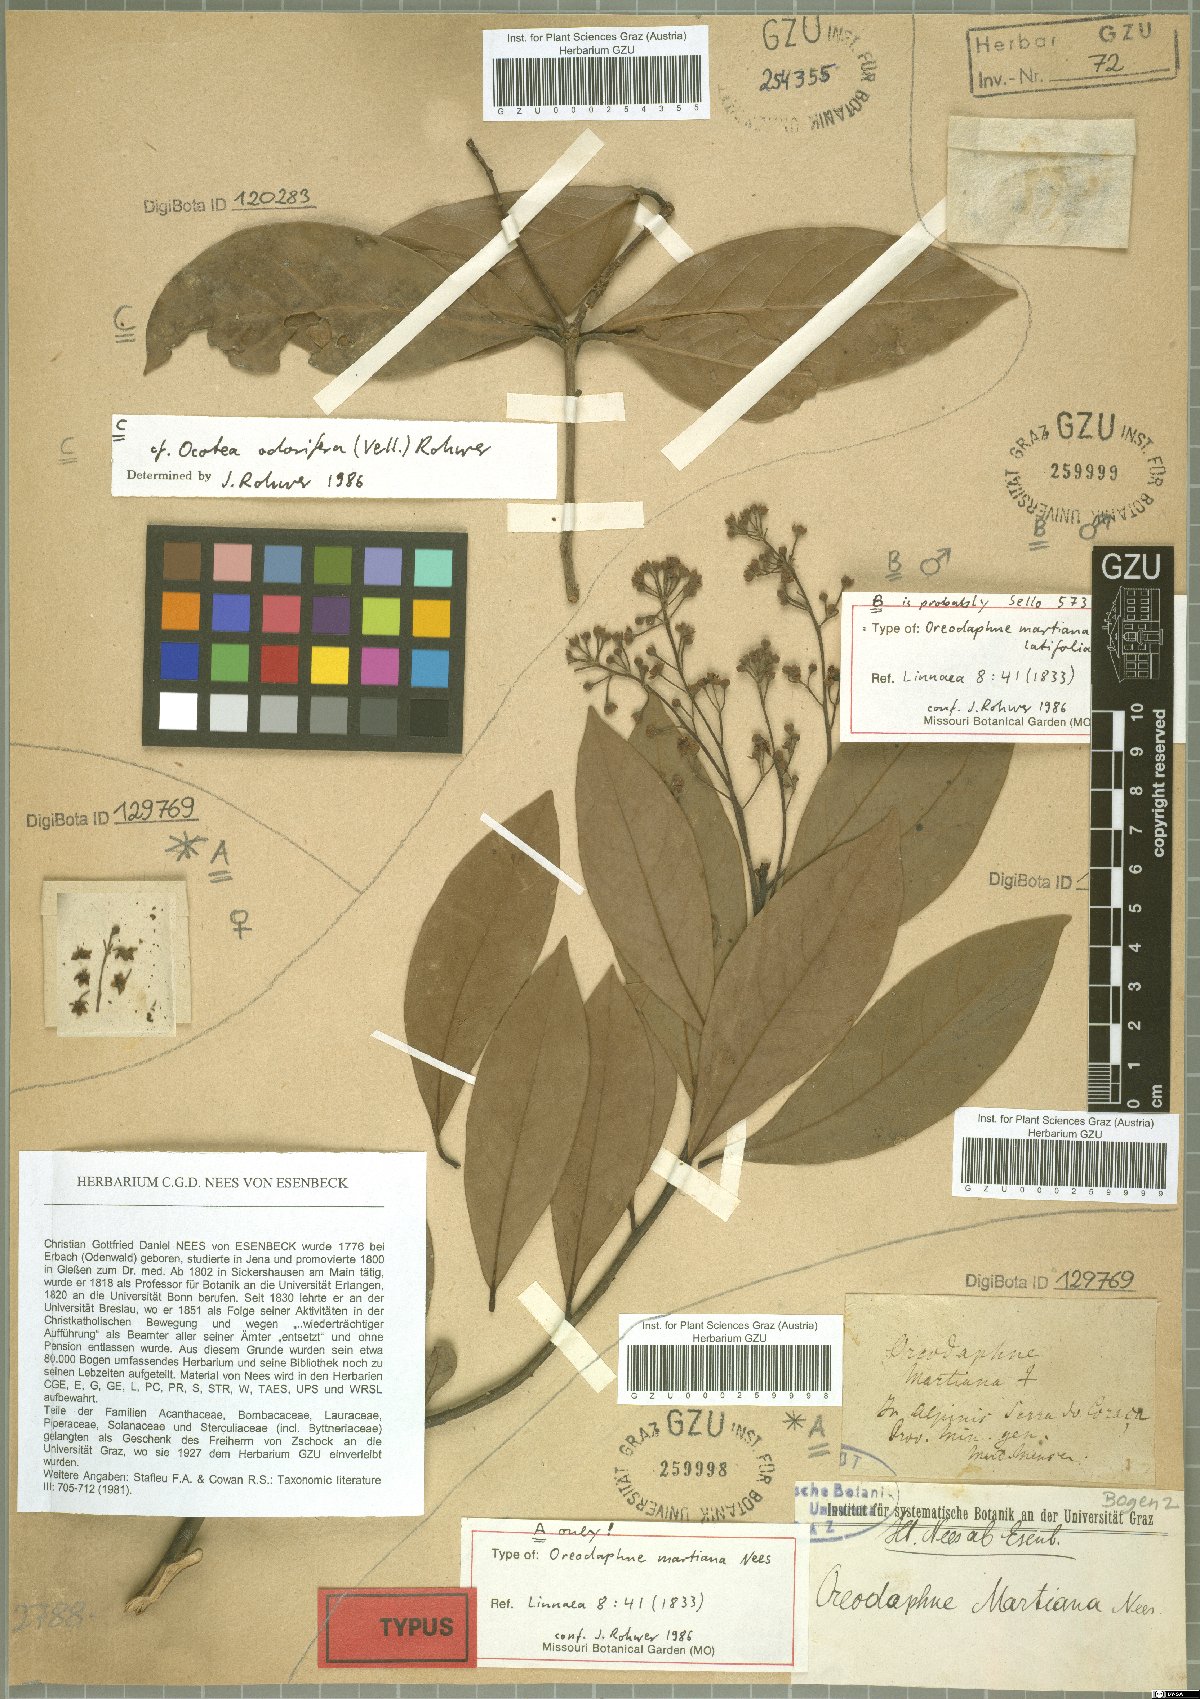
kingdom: Plantae
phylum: Tracheophyta
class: Magnoliopsida
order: Laurales
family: Lauraceae
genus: Ocotea
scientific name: Ocotea lancifolia
